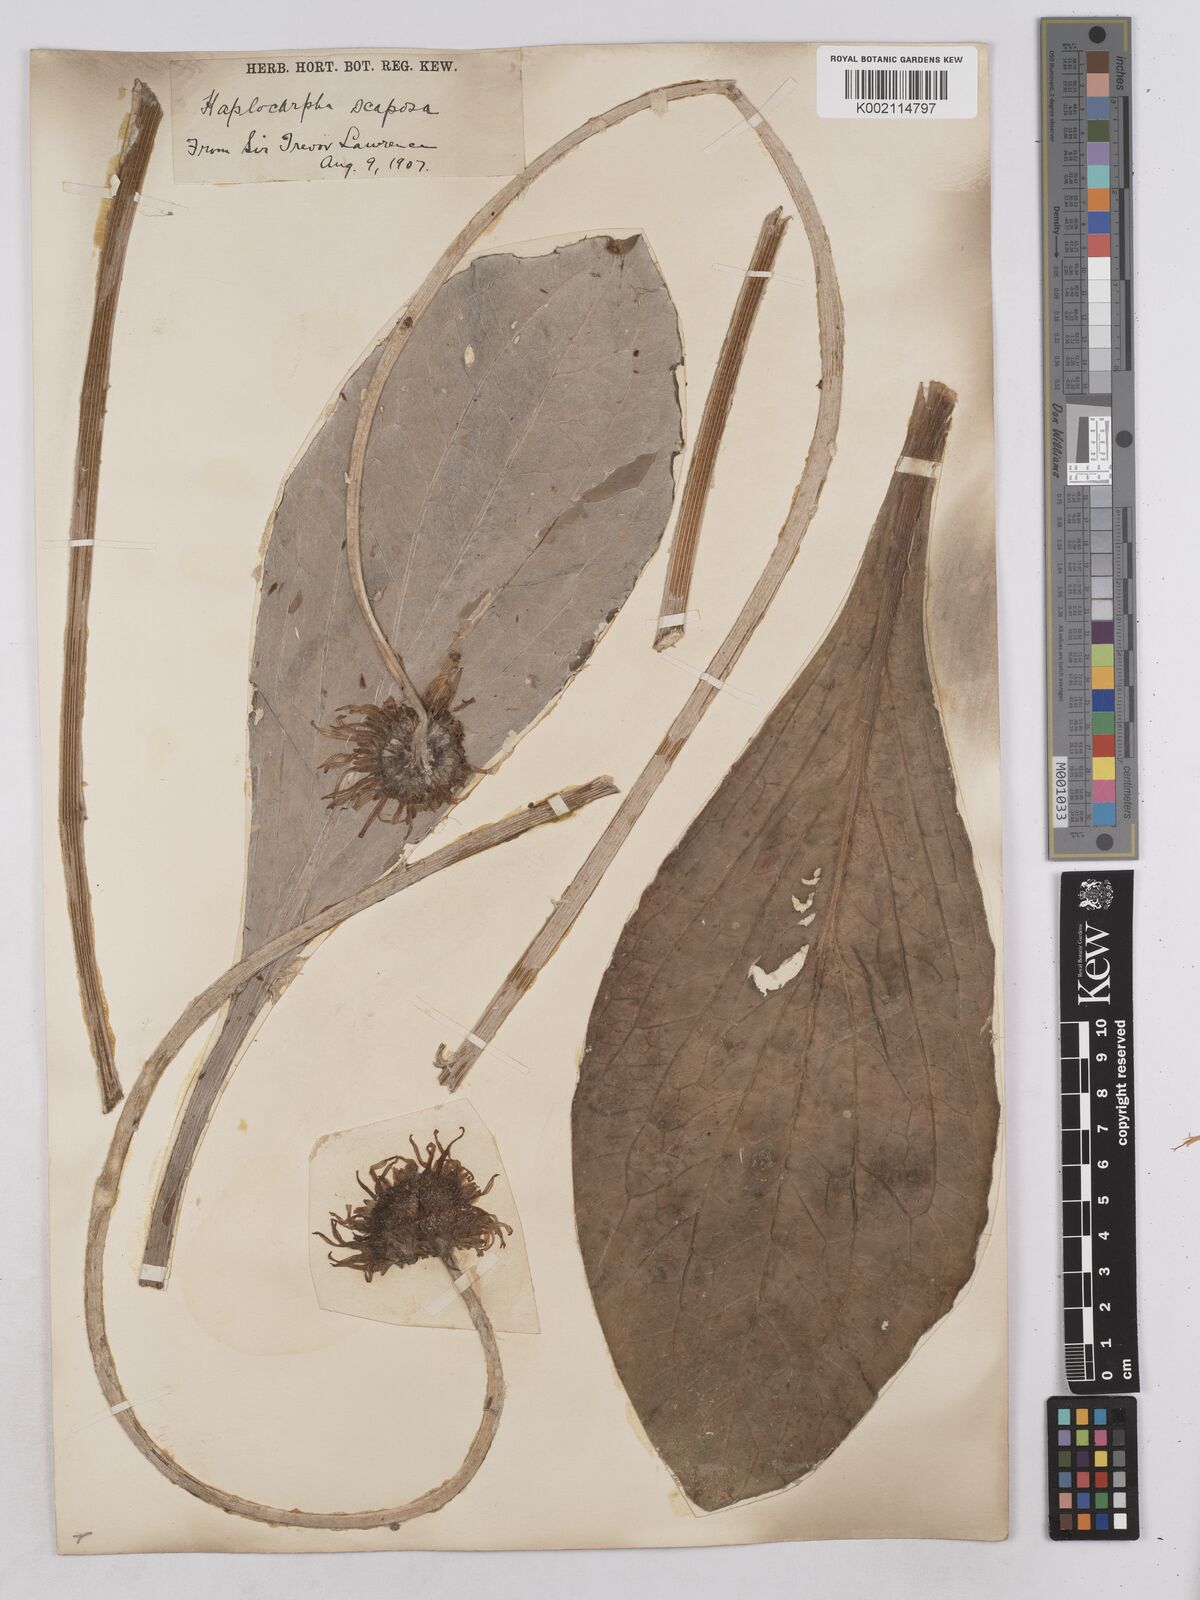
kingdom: Plantae
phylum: Tracheophyta
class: Magnoliopsida
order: Asterales
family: Asteraceae
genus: Haplocarpha
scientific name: Haplocarpha scaposa
